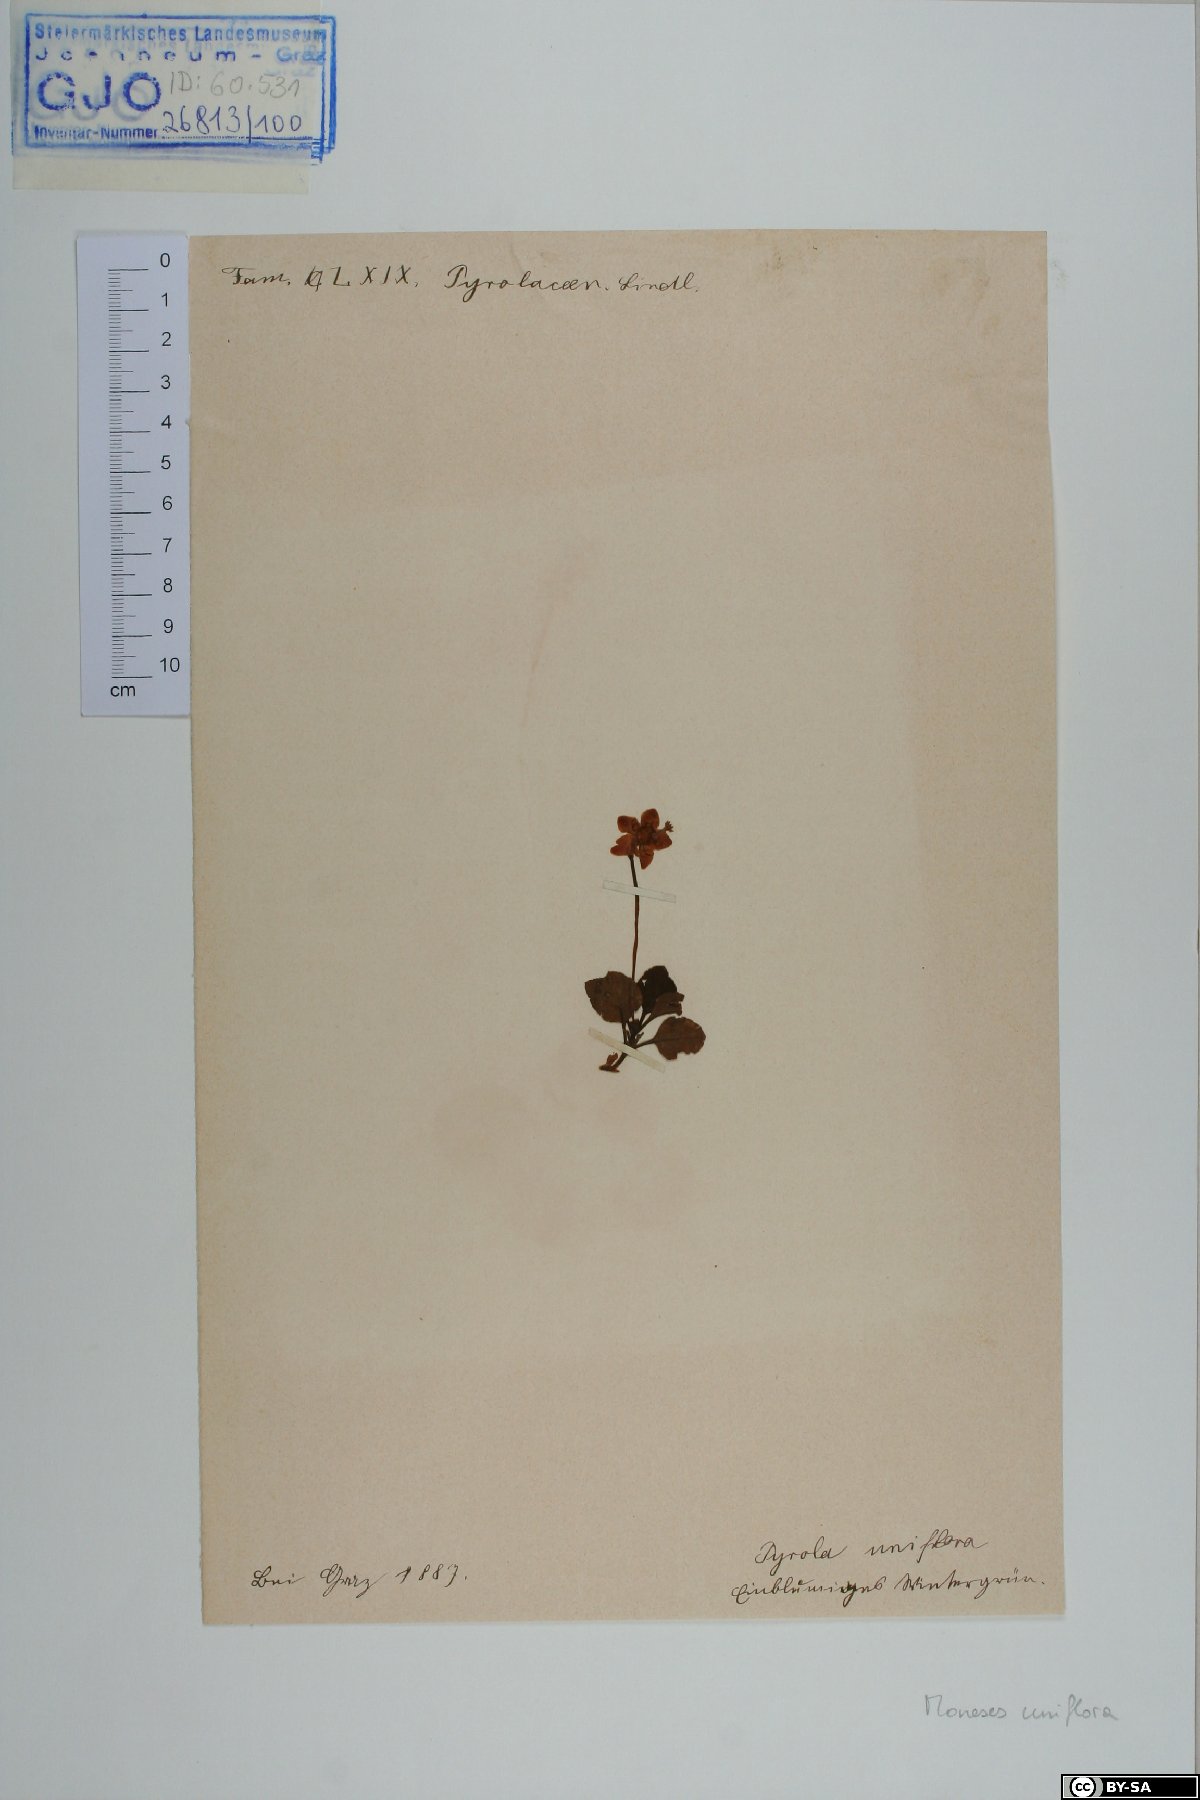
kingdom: Plantae
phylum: Tracheophyta
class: Magnoliopsida
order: Ericales
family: Ericaceae
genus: Moneses
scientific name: Moneses uniflora
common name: One-flowered wintergreen
